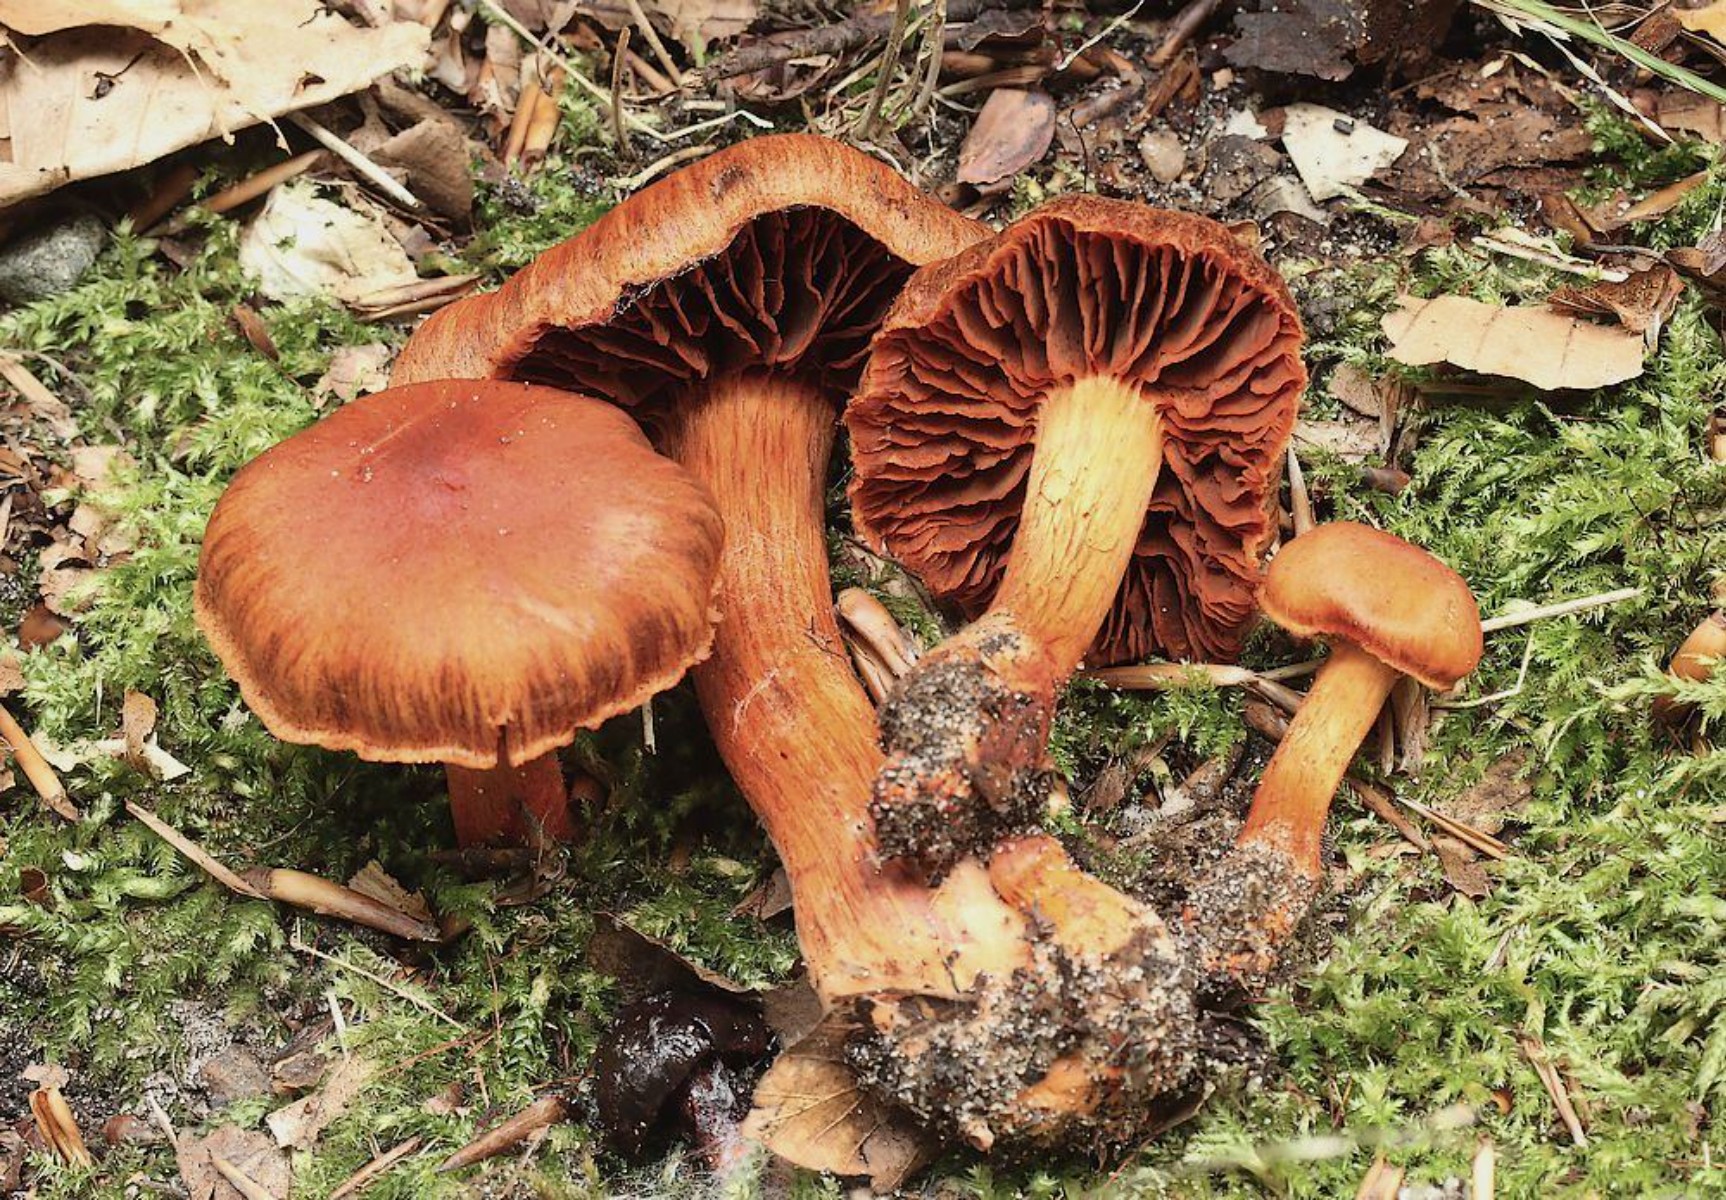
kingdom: Fungi
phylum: Basidiomycota
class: Agaricomycetes
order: Agaricales
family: Cortinariaceae
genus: Cortinarius
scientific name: Cortinarius cinnabarinus
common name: cinnober-slørhat
